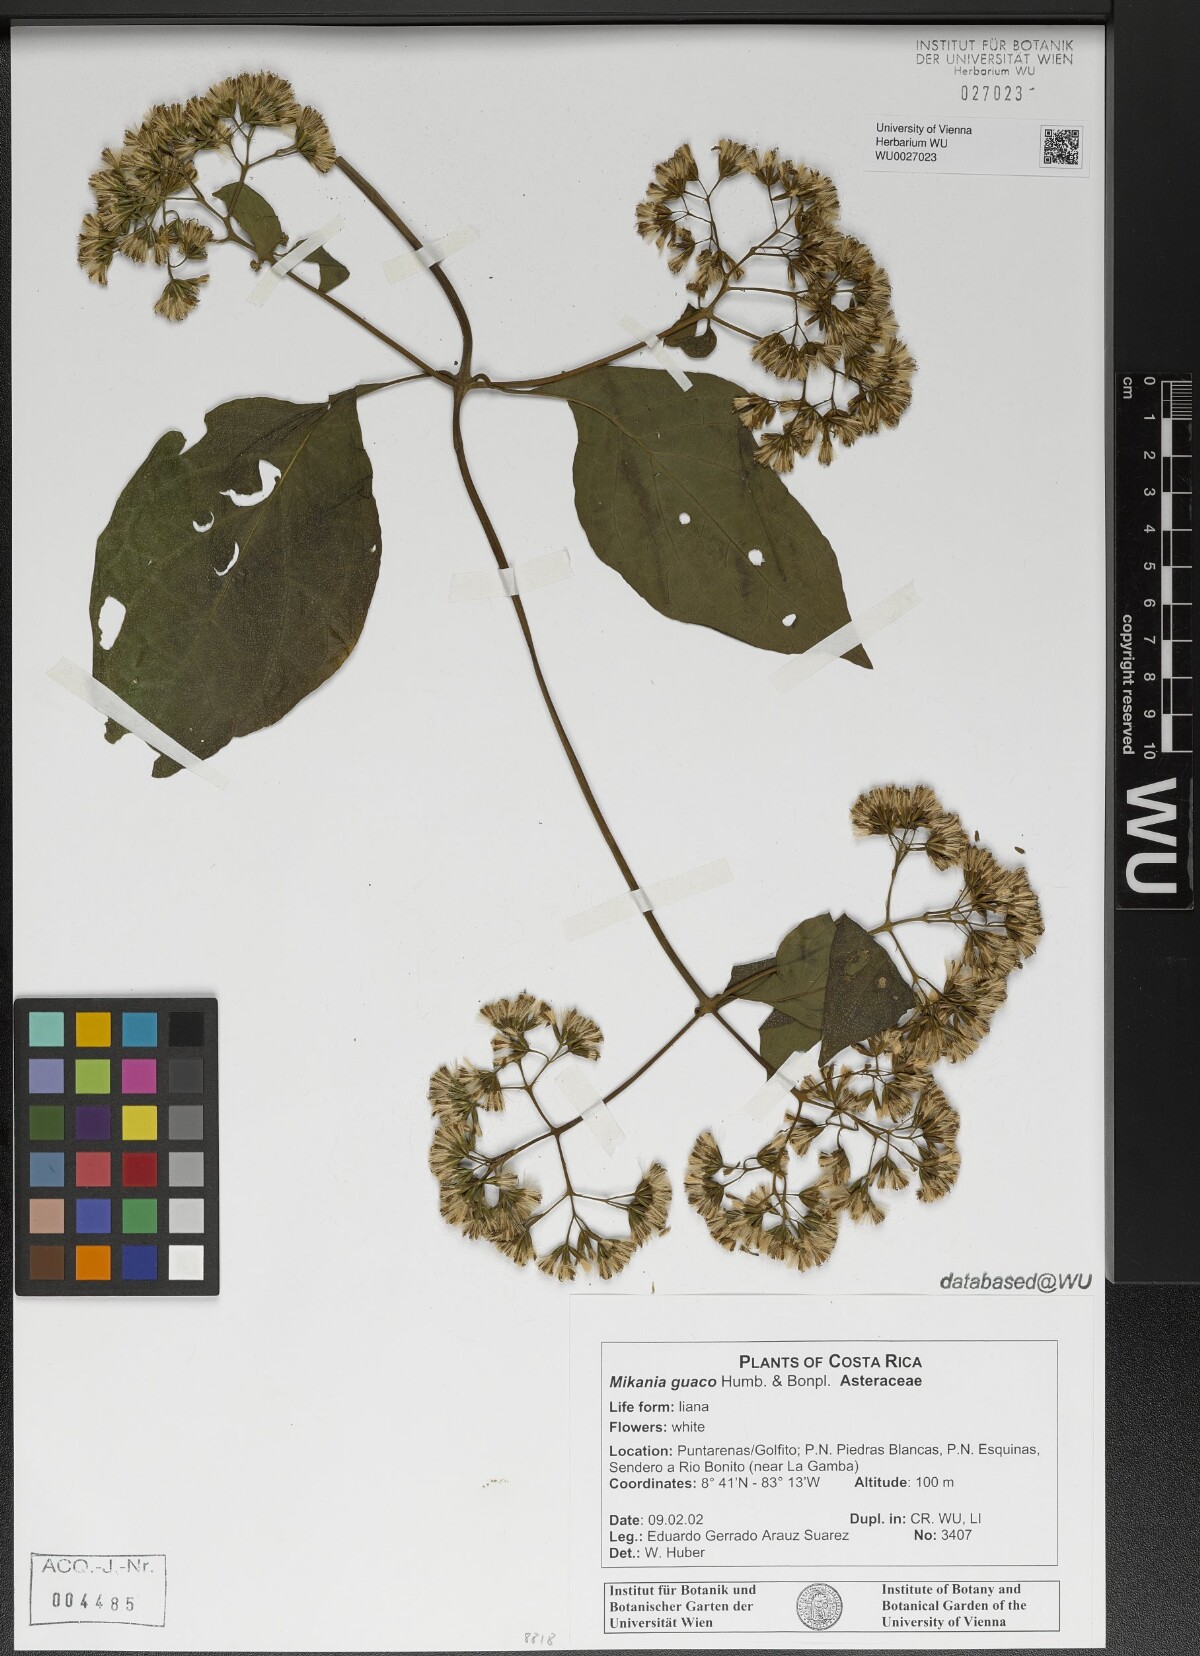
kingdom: Plantae
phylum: Tracheophyta
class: Magnoliopsida
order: Asterales
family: Asteraceae
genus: Mikania
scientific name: Mikania guaco
